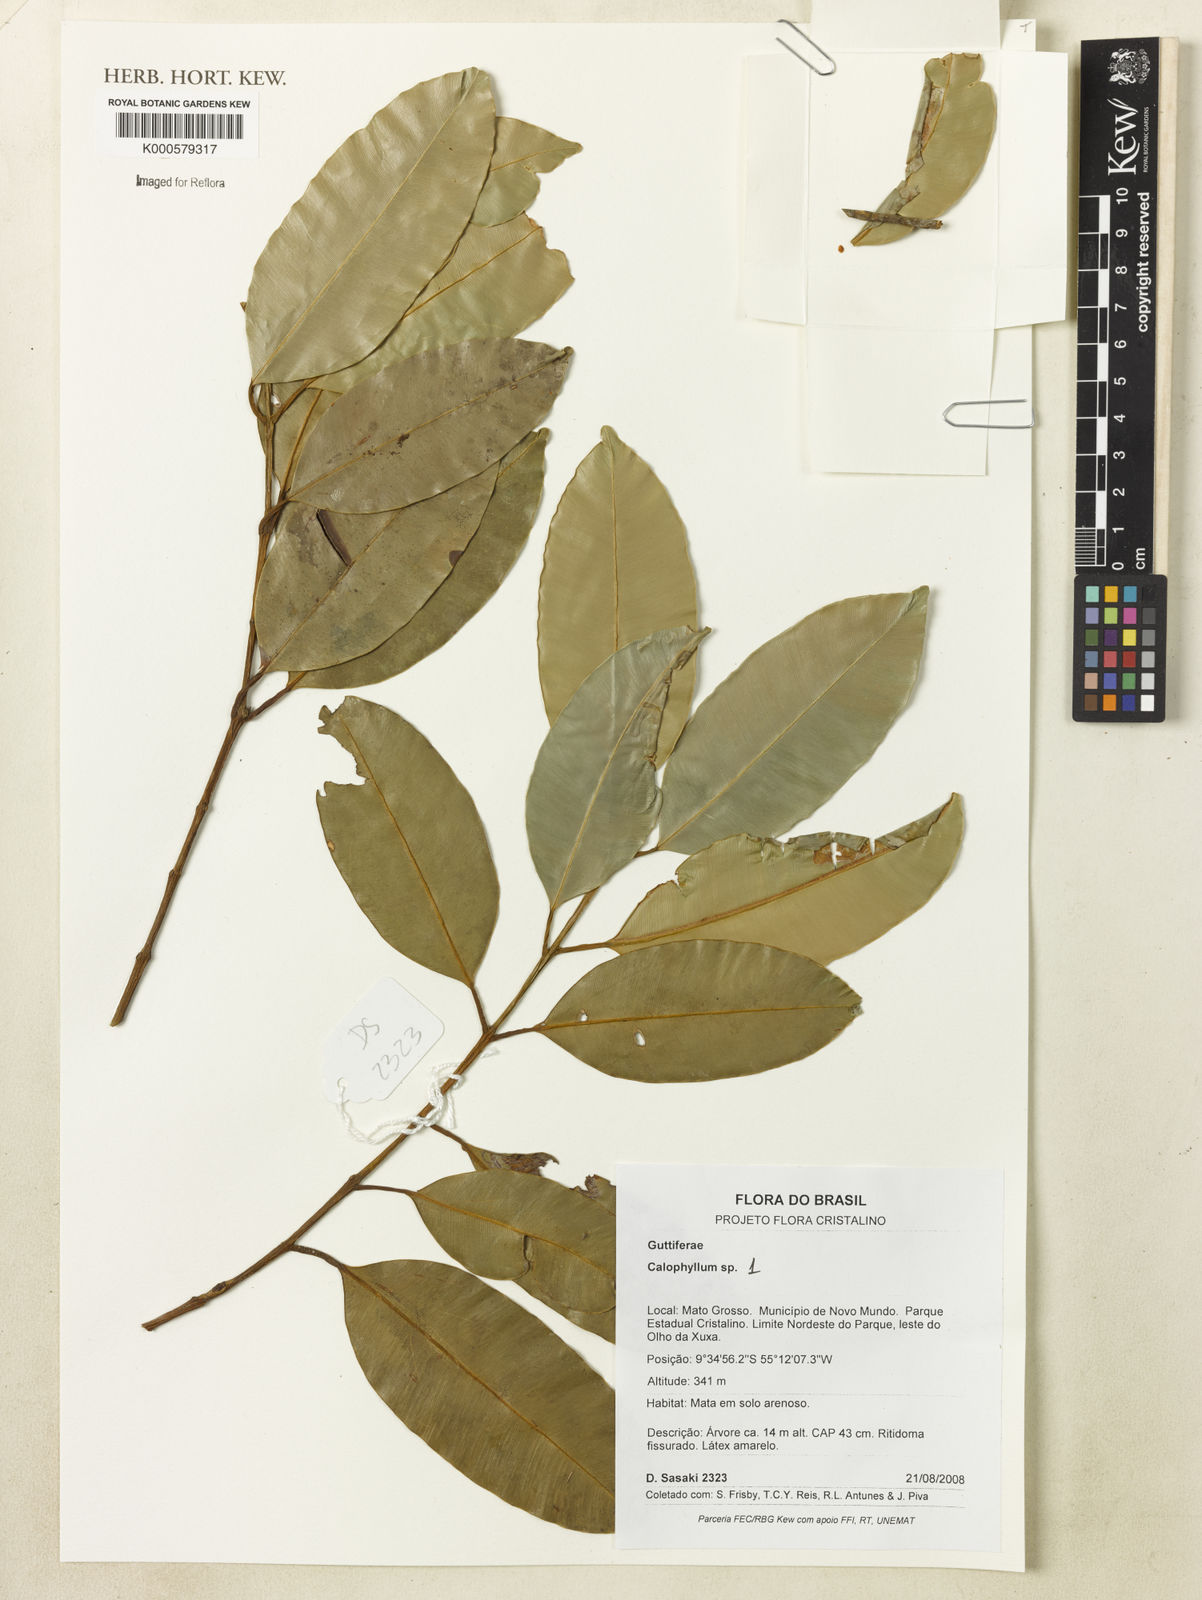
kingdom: Plantae
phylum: Tracheophyta
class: Magnoliopsida
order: Malpighiales
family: Calophyllaceae
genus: Calophyllum
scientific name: Calophyllum
